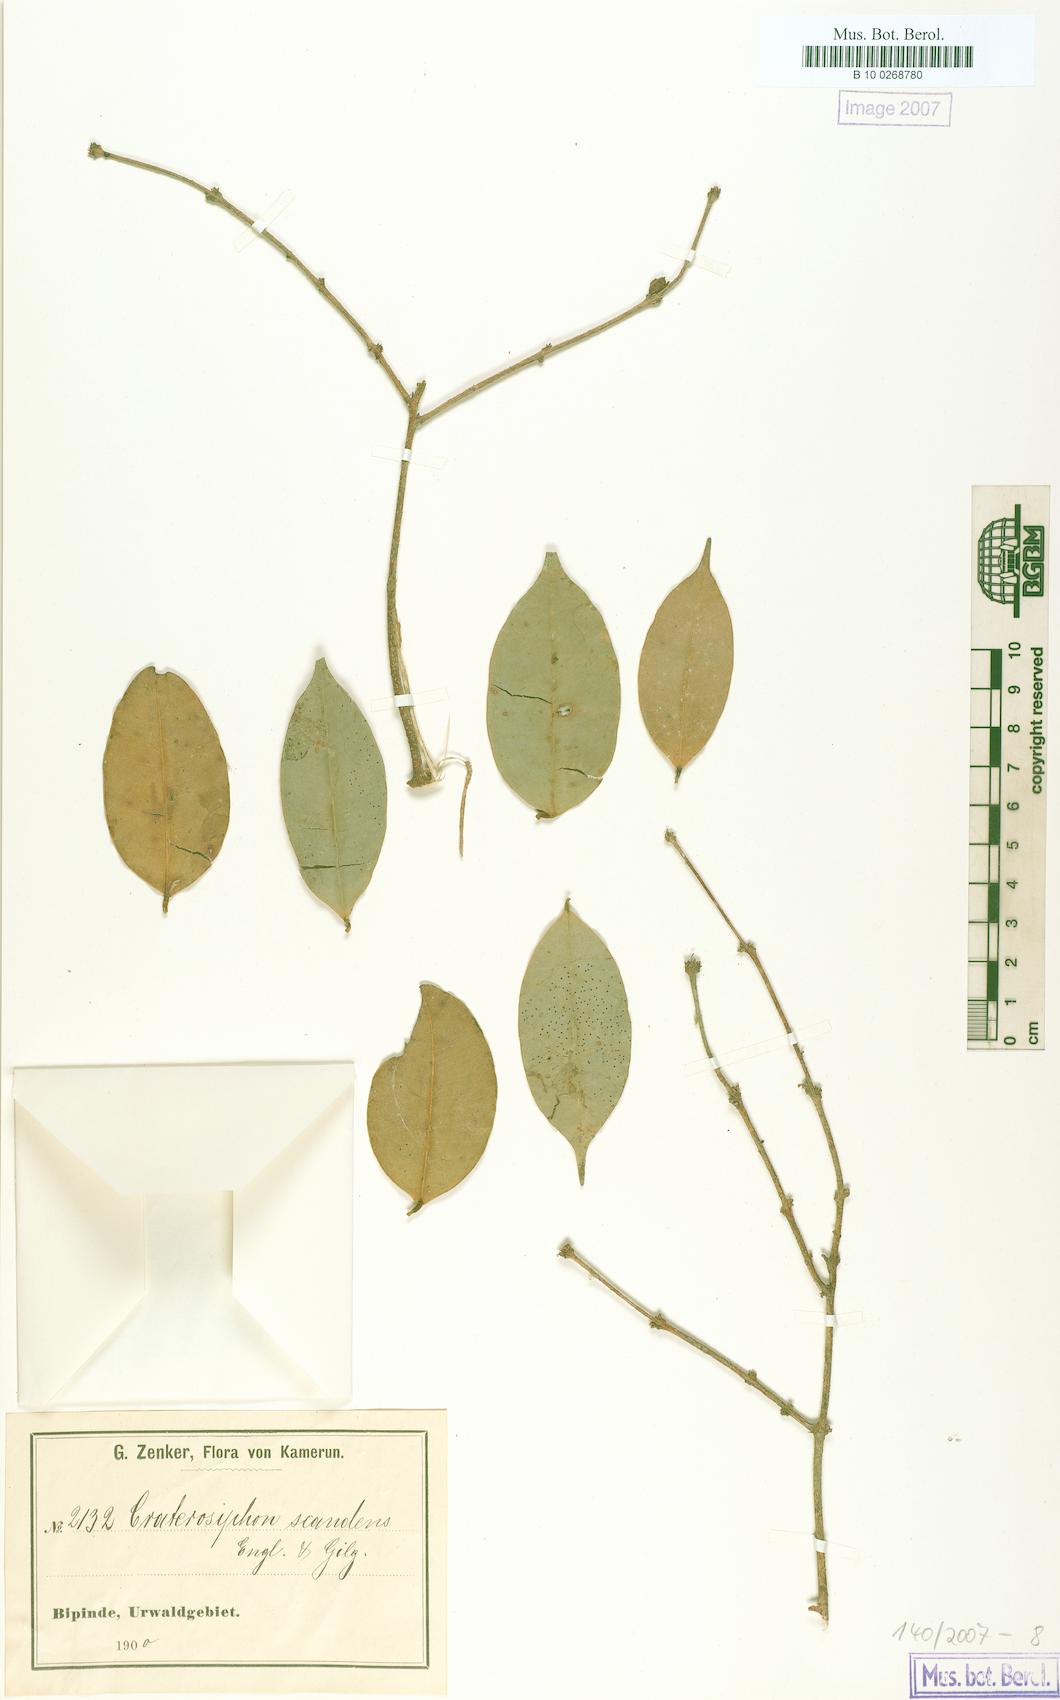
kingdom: Plantae
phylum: Tracheophyta
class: Magnoliopsida
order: Malvales
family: Thymelaeaceae
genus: Craterosiphon
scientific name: Craterosiphon pseudoscandens
